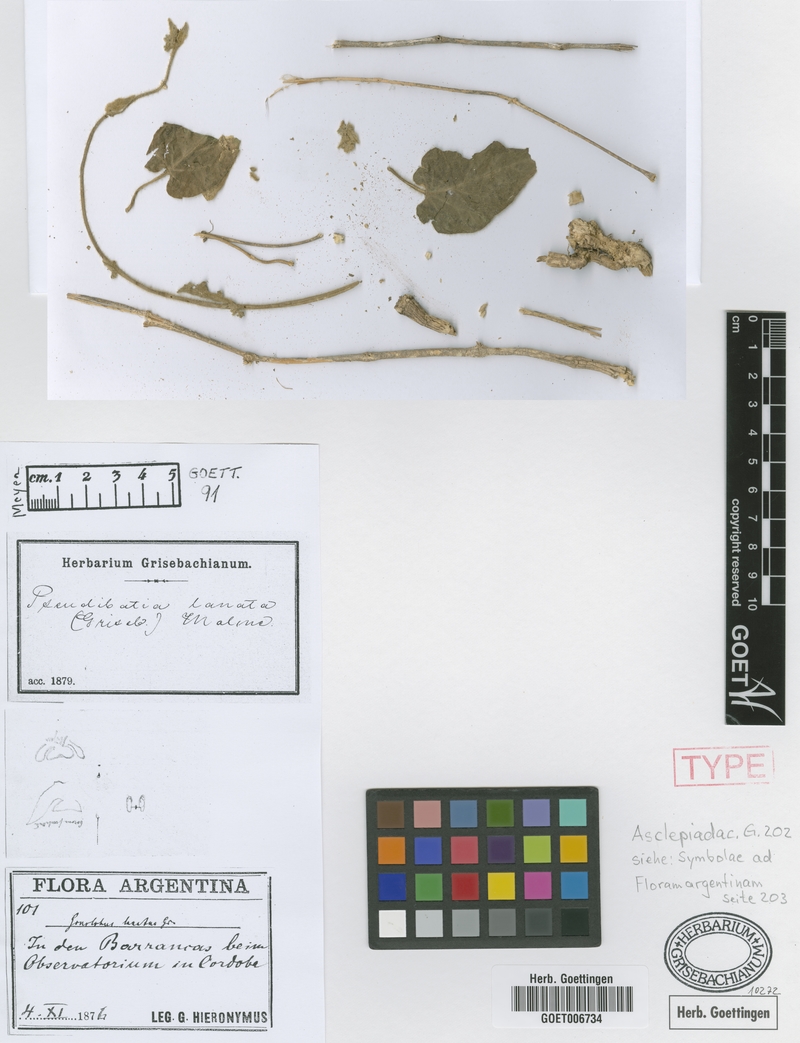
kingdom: Plantae
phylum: Tracheophyta
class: Magnoliopsida
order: Gentianales
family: Apocynaceae
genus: Ibatia
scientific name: Ibatia foetida
